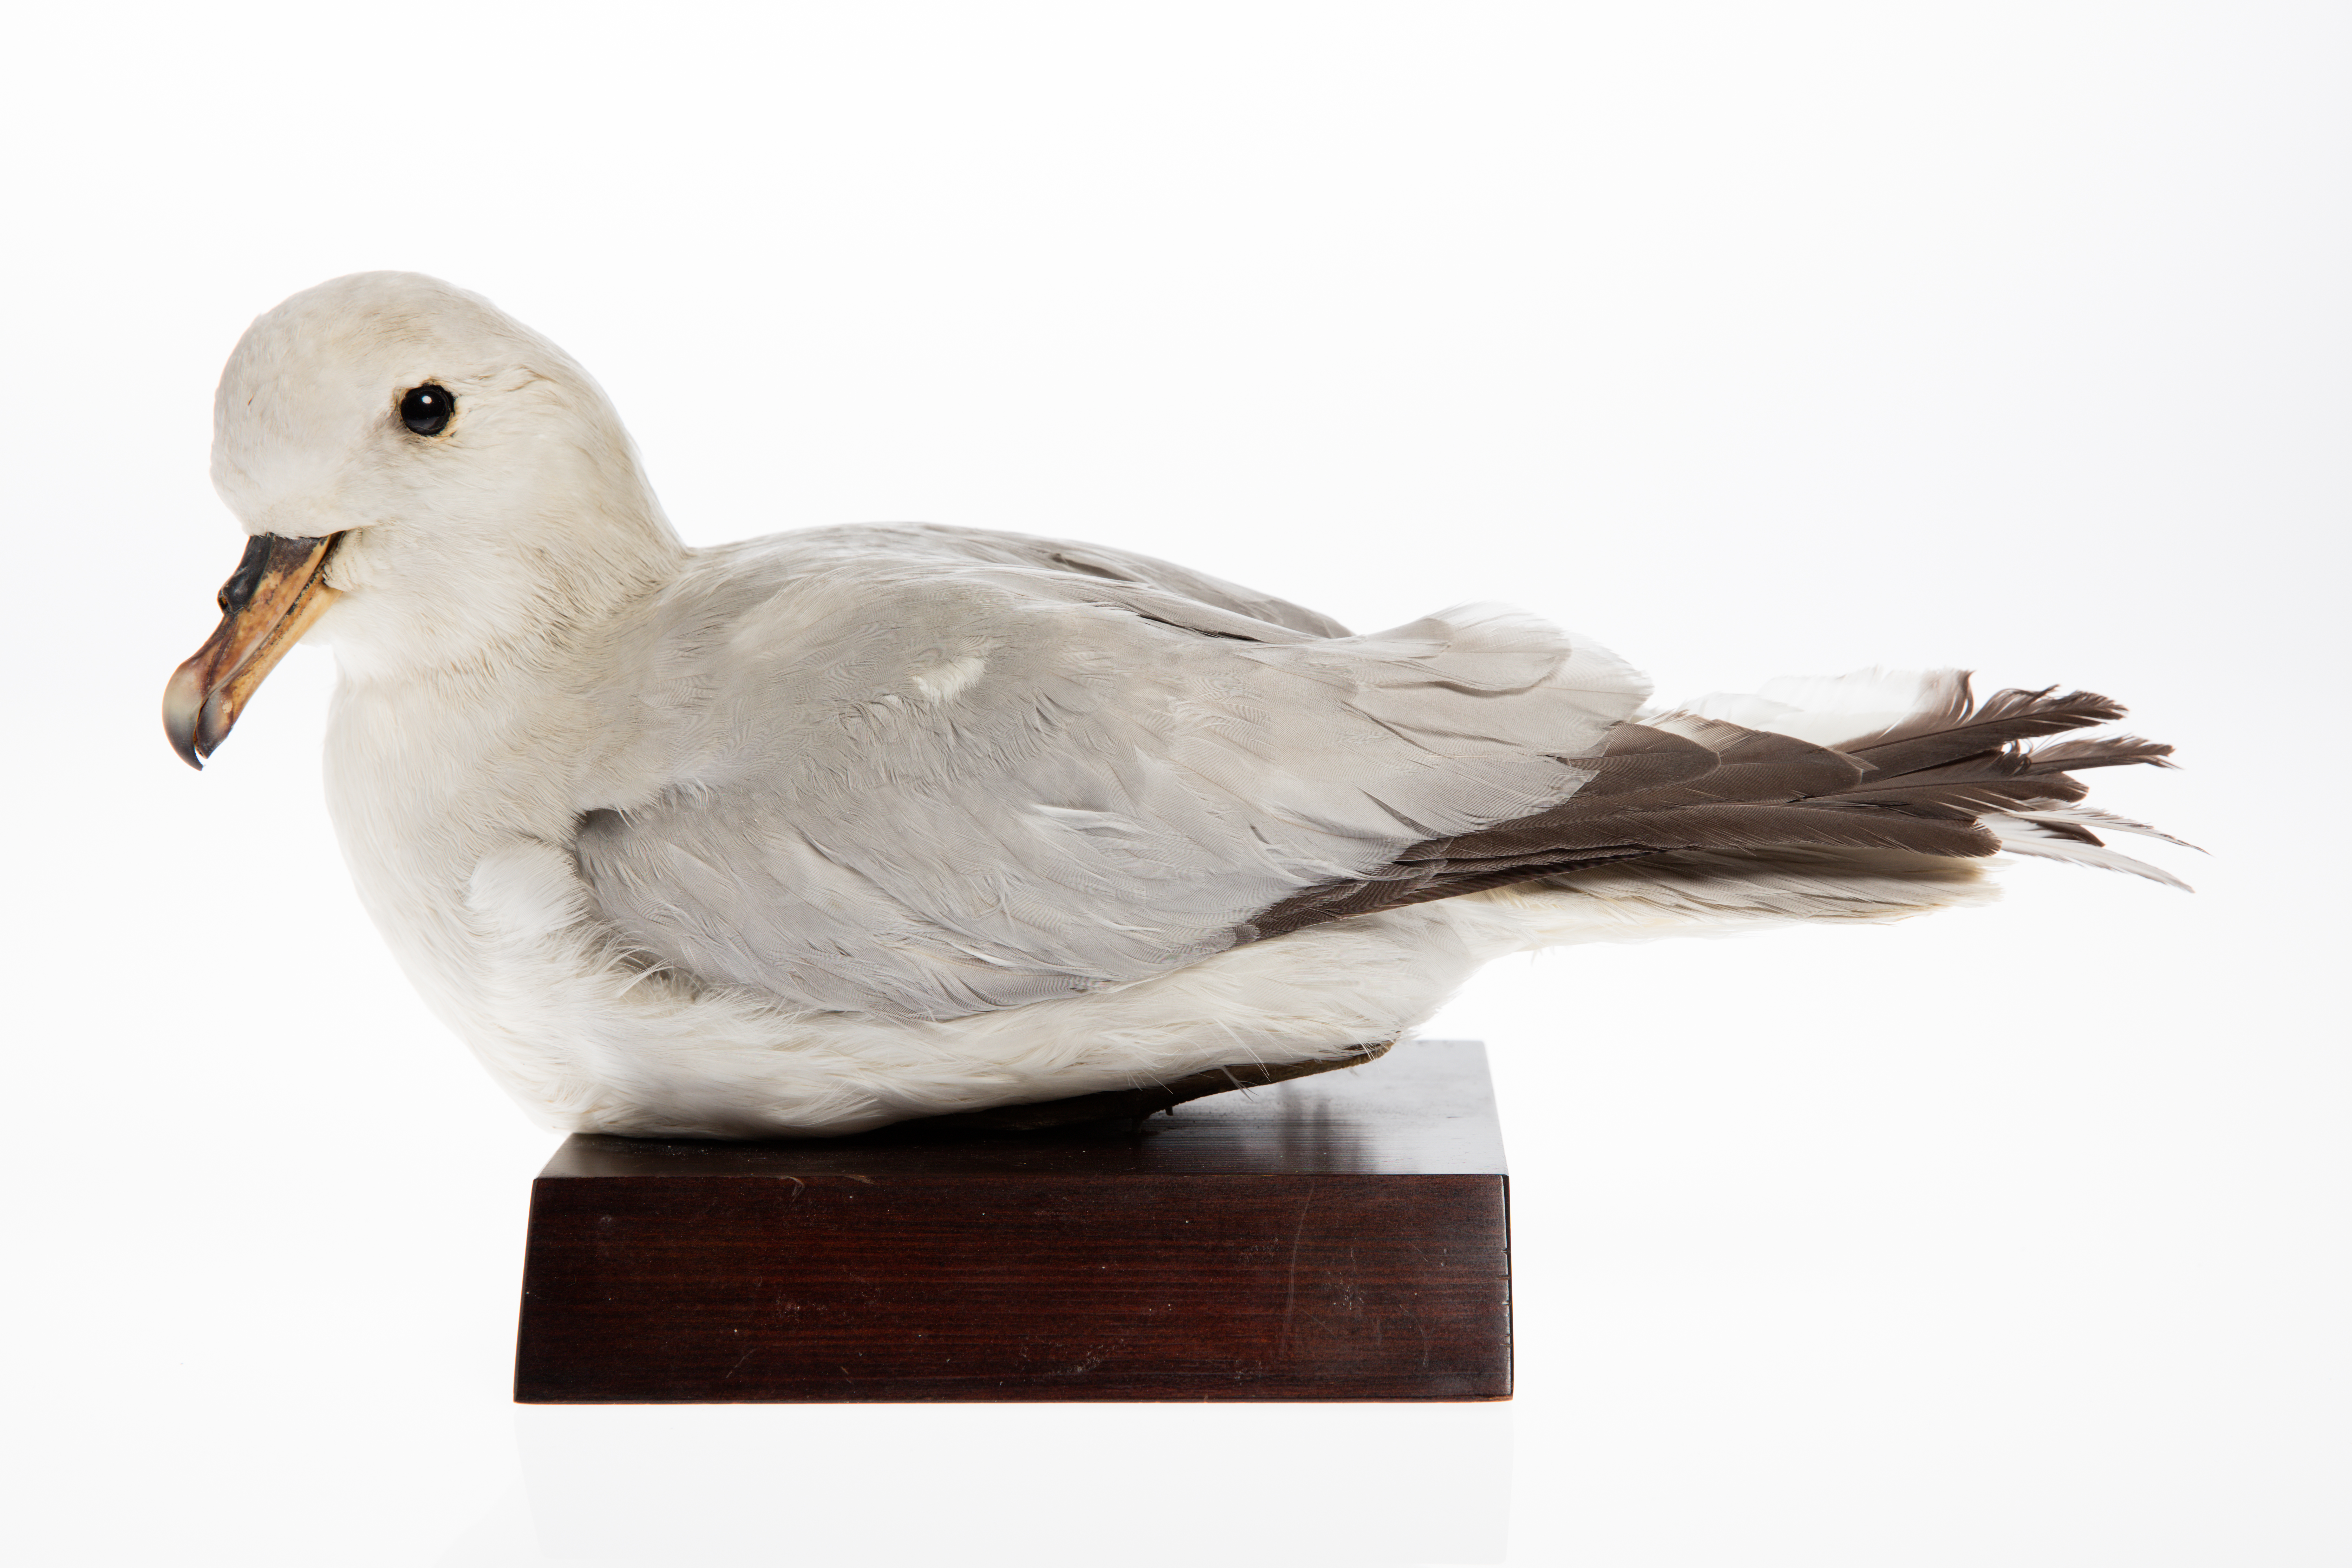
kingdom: Animalia
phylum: Chordata
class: Aves
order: Procellariiformes
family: Procellariidae
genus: Fulmarus
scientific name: Fulmarus glacialoides
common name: Southern fulmar
